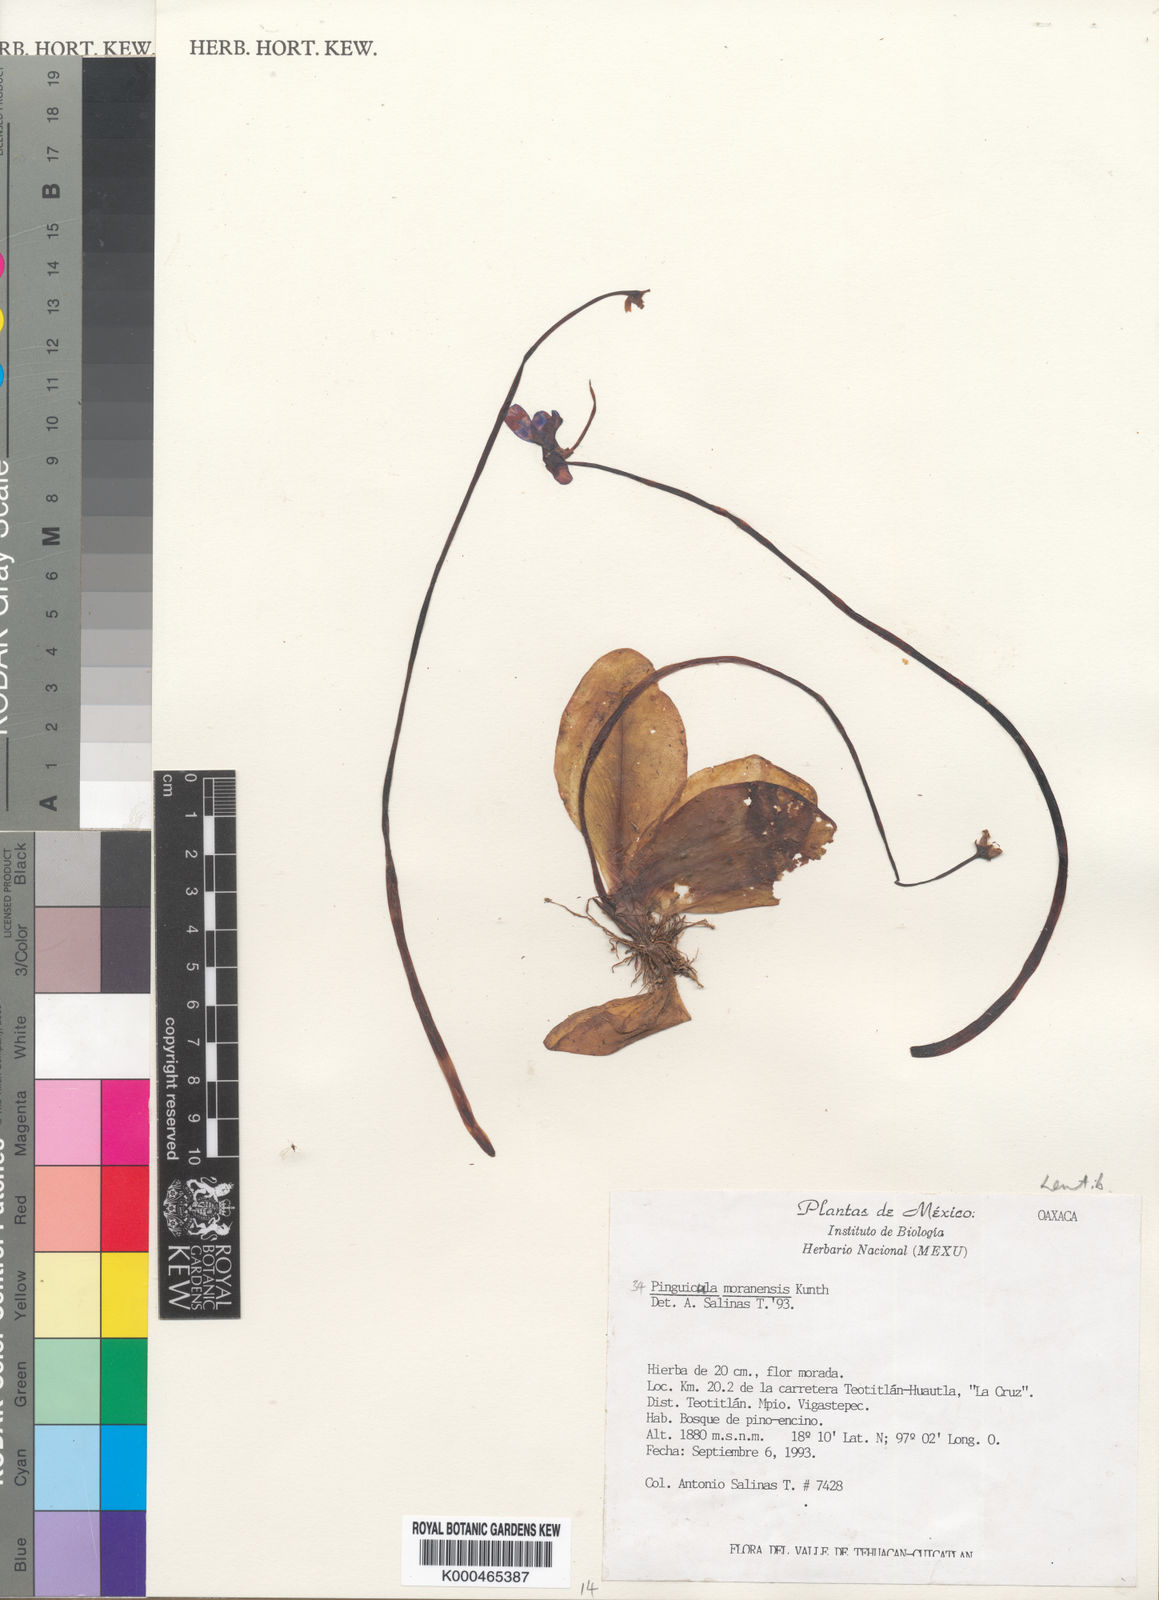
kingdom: Plantae
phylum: Tracheophyta
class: Magnoliopsida
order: Lamiales
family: Lentibulariaceae
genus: Pinguicula
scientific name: Pinguicula moranensis
